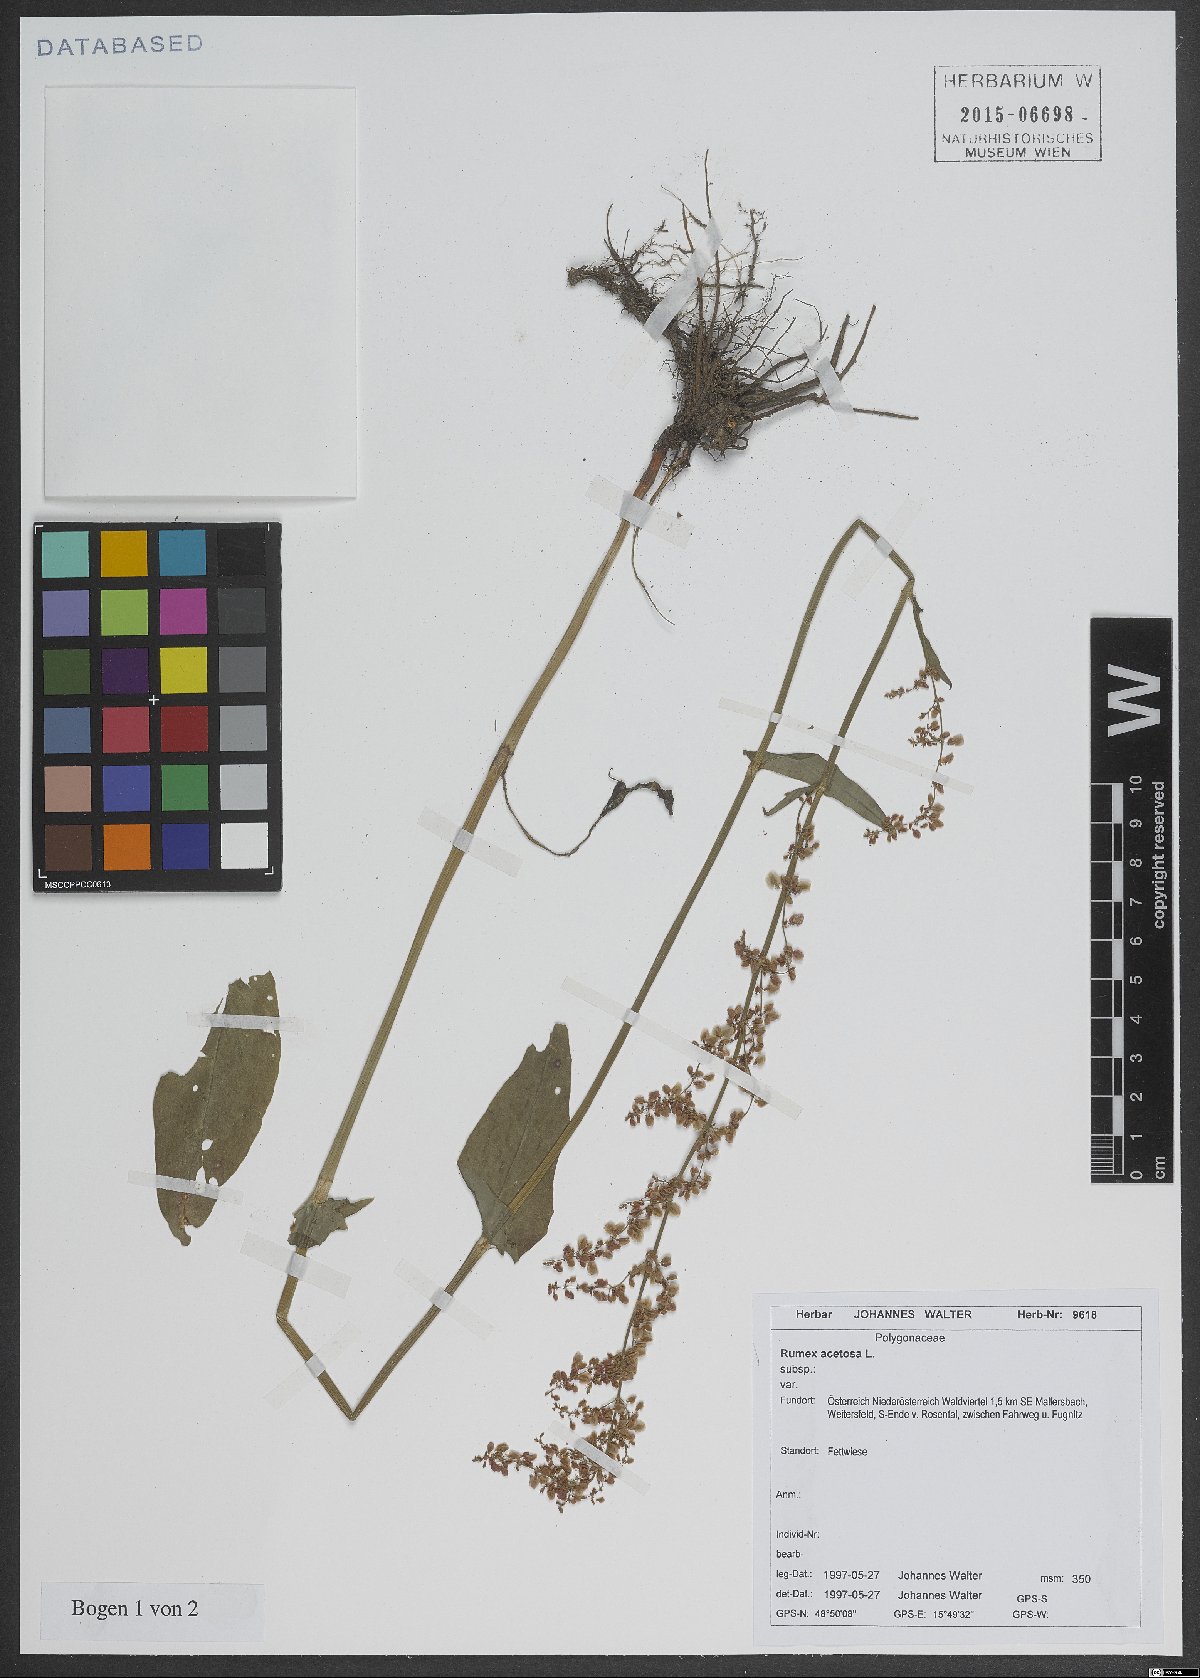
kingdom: Plantae
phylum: Tracheophyta
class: Magnoliopsida
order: Caryophyllales
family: Polygonaceae
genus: Rumex
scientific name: Rumex acetosa
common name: Garden sorrel
